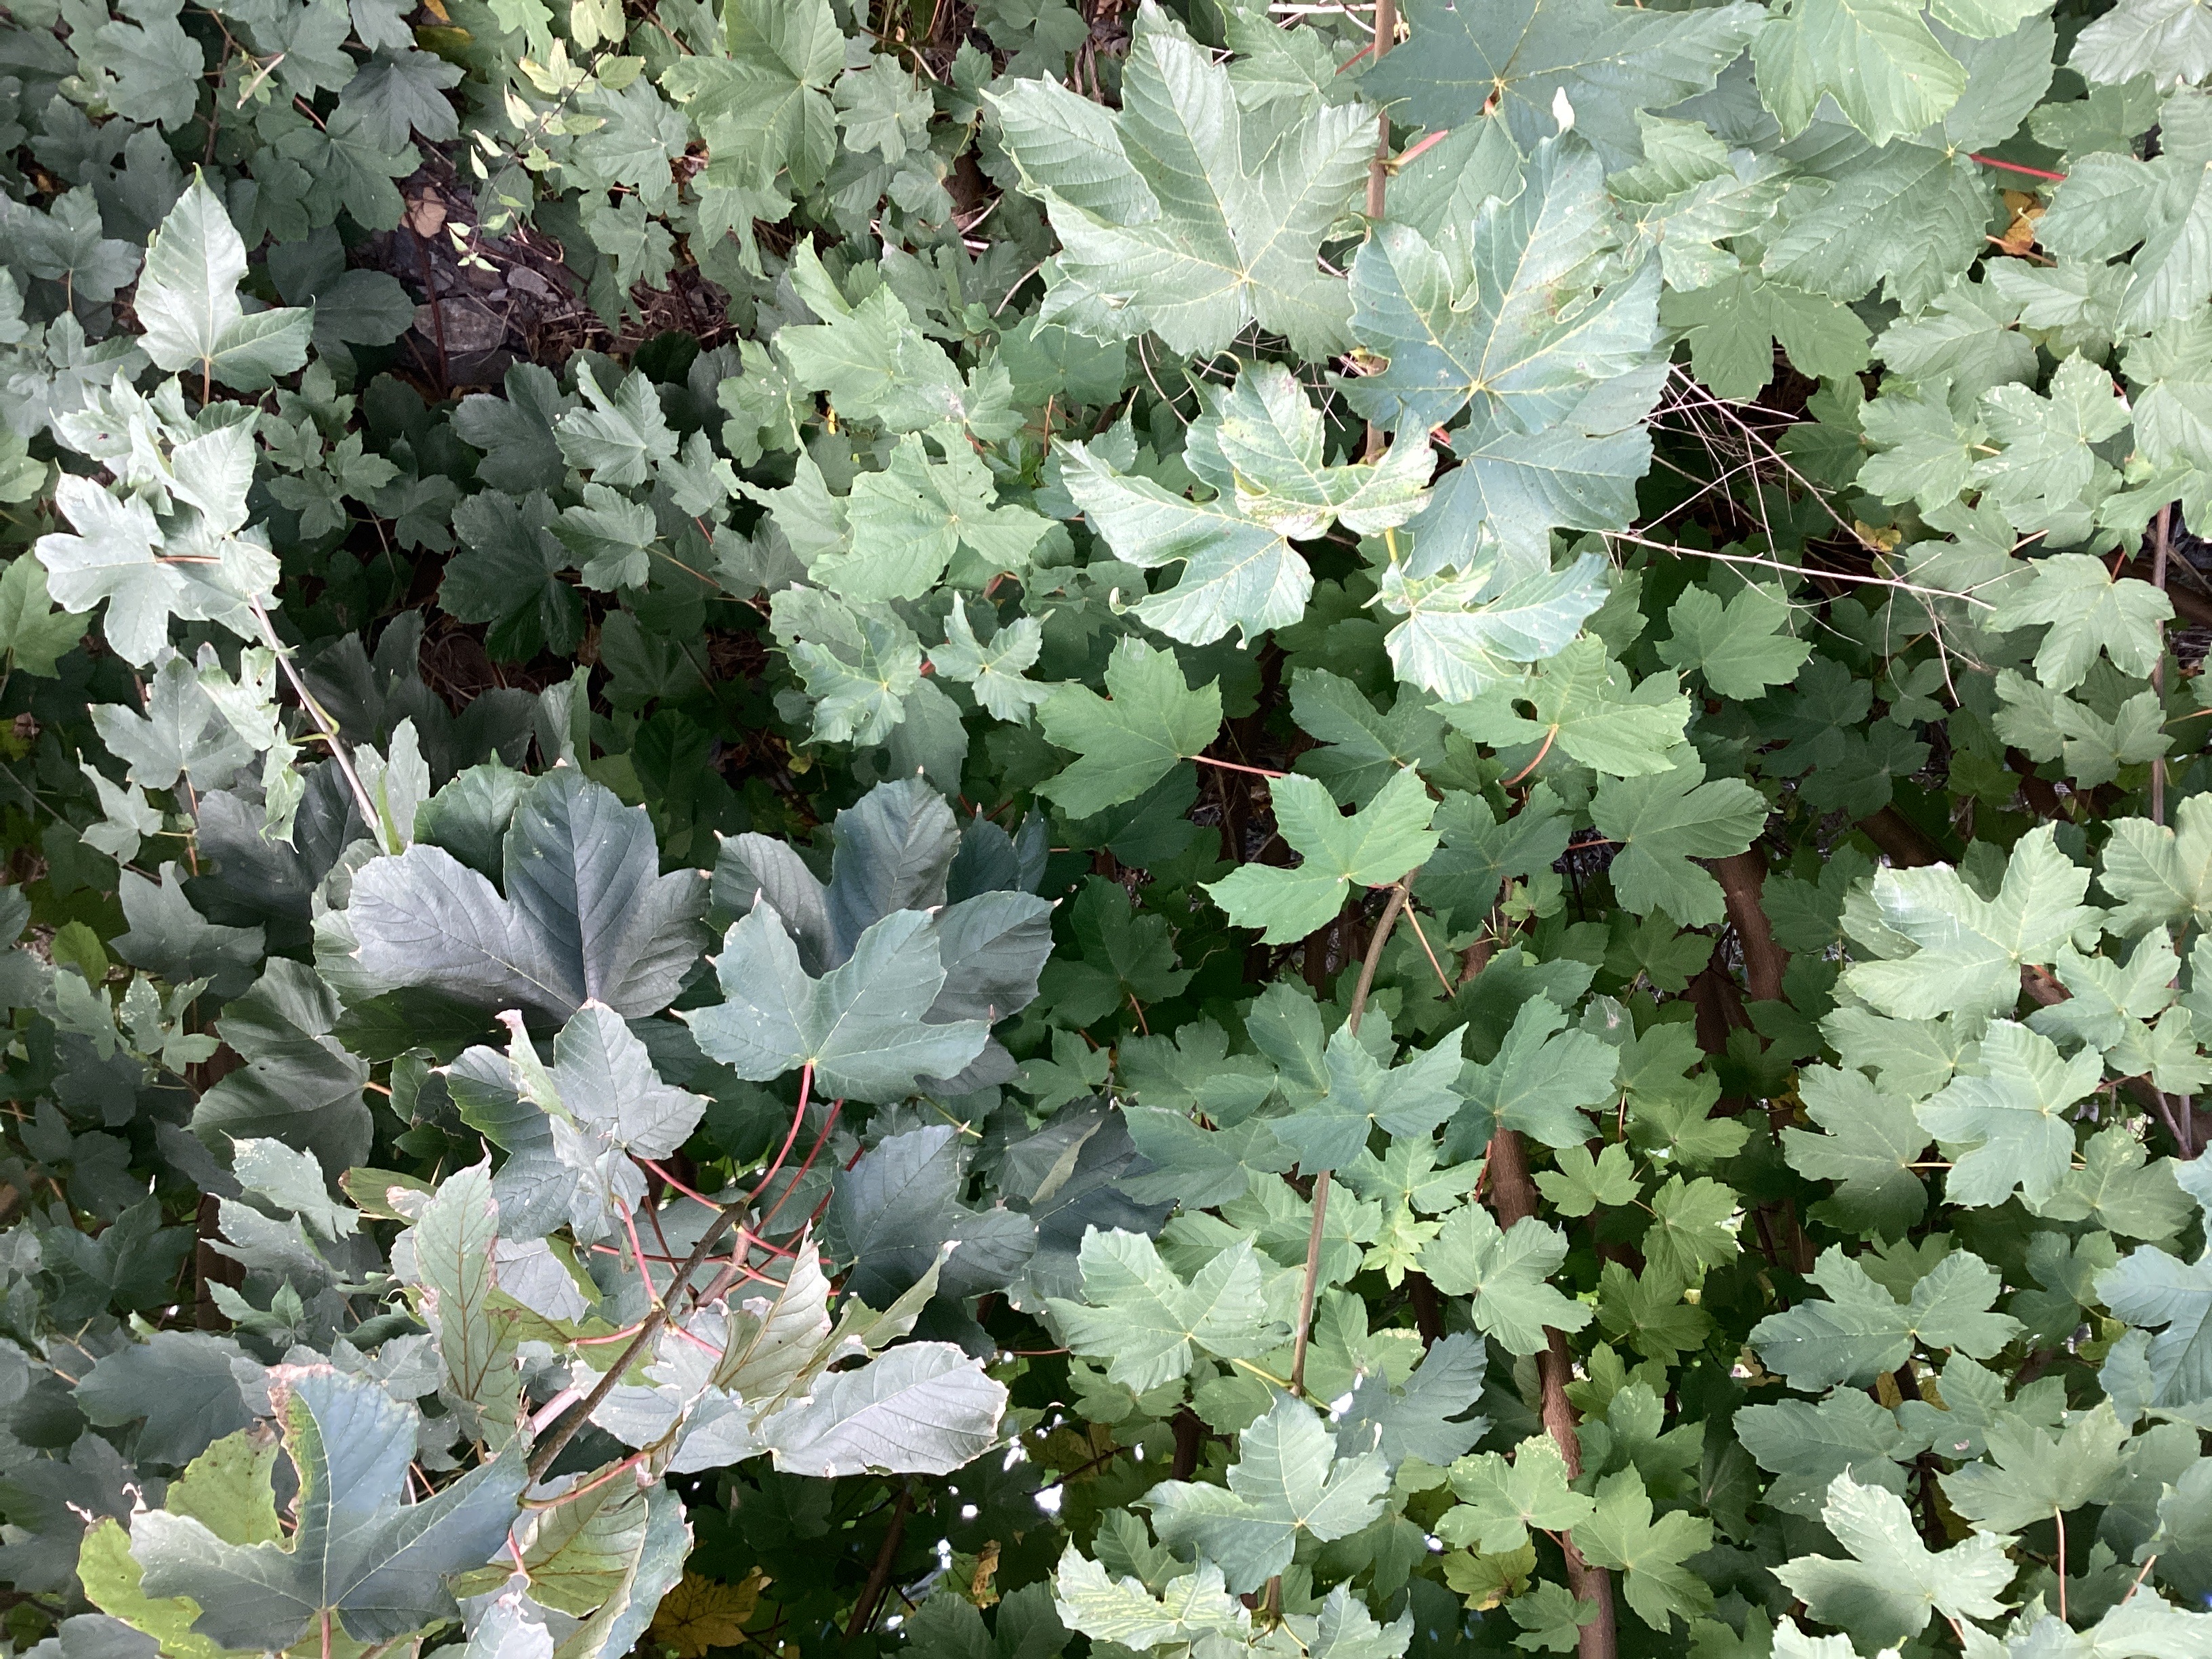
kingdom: Plantae
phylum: Tracheophyta
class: Magnoliopsida
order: Sapindales
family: Sapindaceae
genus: Acer
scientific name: Acer pseudoplatanus
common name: platanlønn
